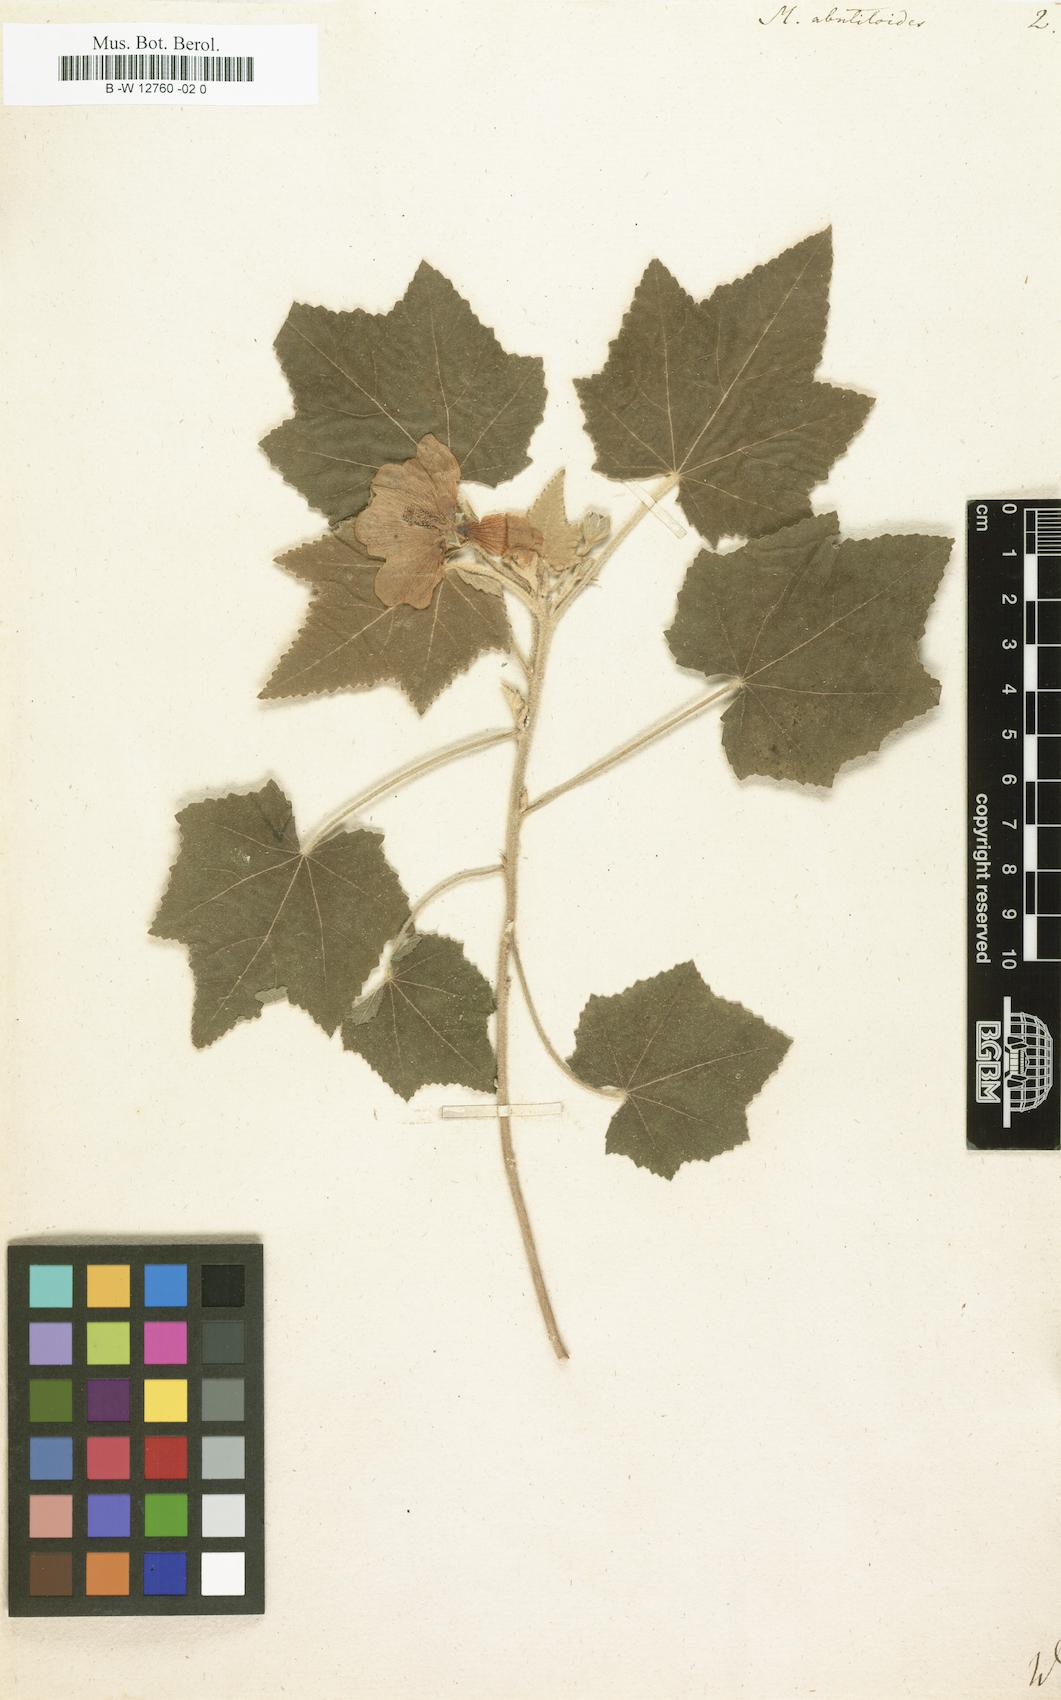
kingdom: Plantae
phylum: Tracheophyta
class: Magnoliopsida
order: Malvales
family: Malvaceae
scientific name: Malvaceae
